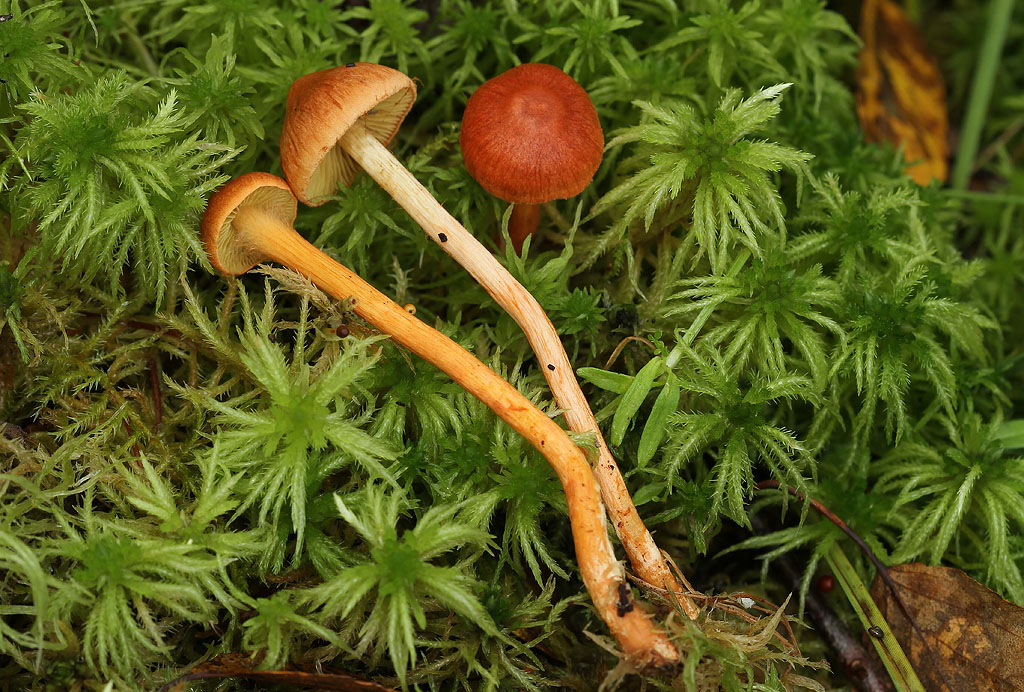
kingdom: Fungi
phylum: Basidiomycota
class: Agaricomycetes
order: Agaricales
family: Cortinariaceae
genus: Cortinarius
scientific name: Cortinarius uliginosus
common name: mose-slørhat
